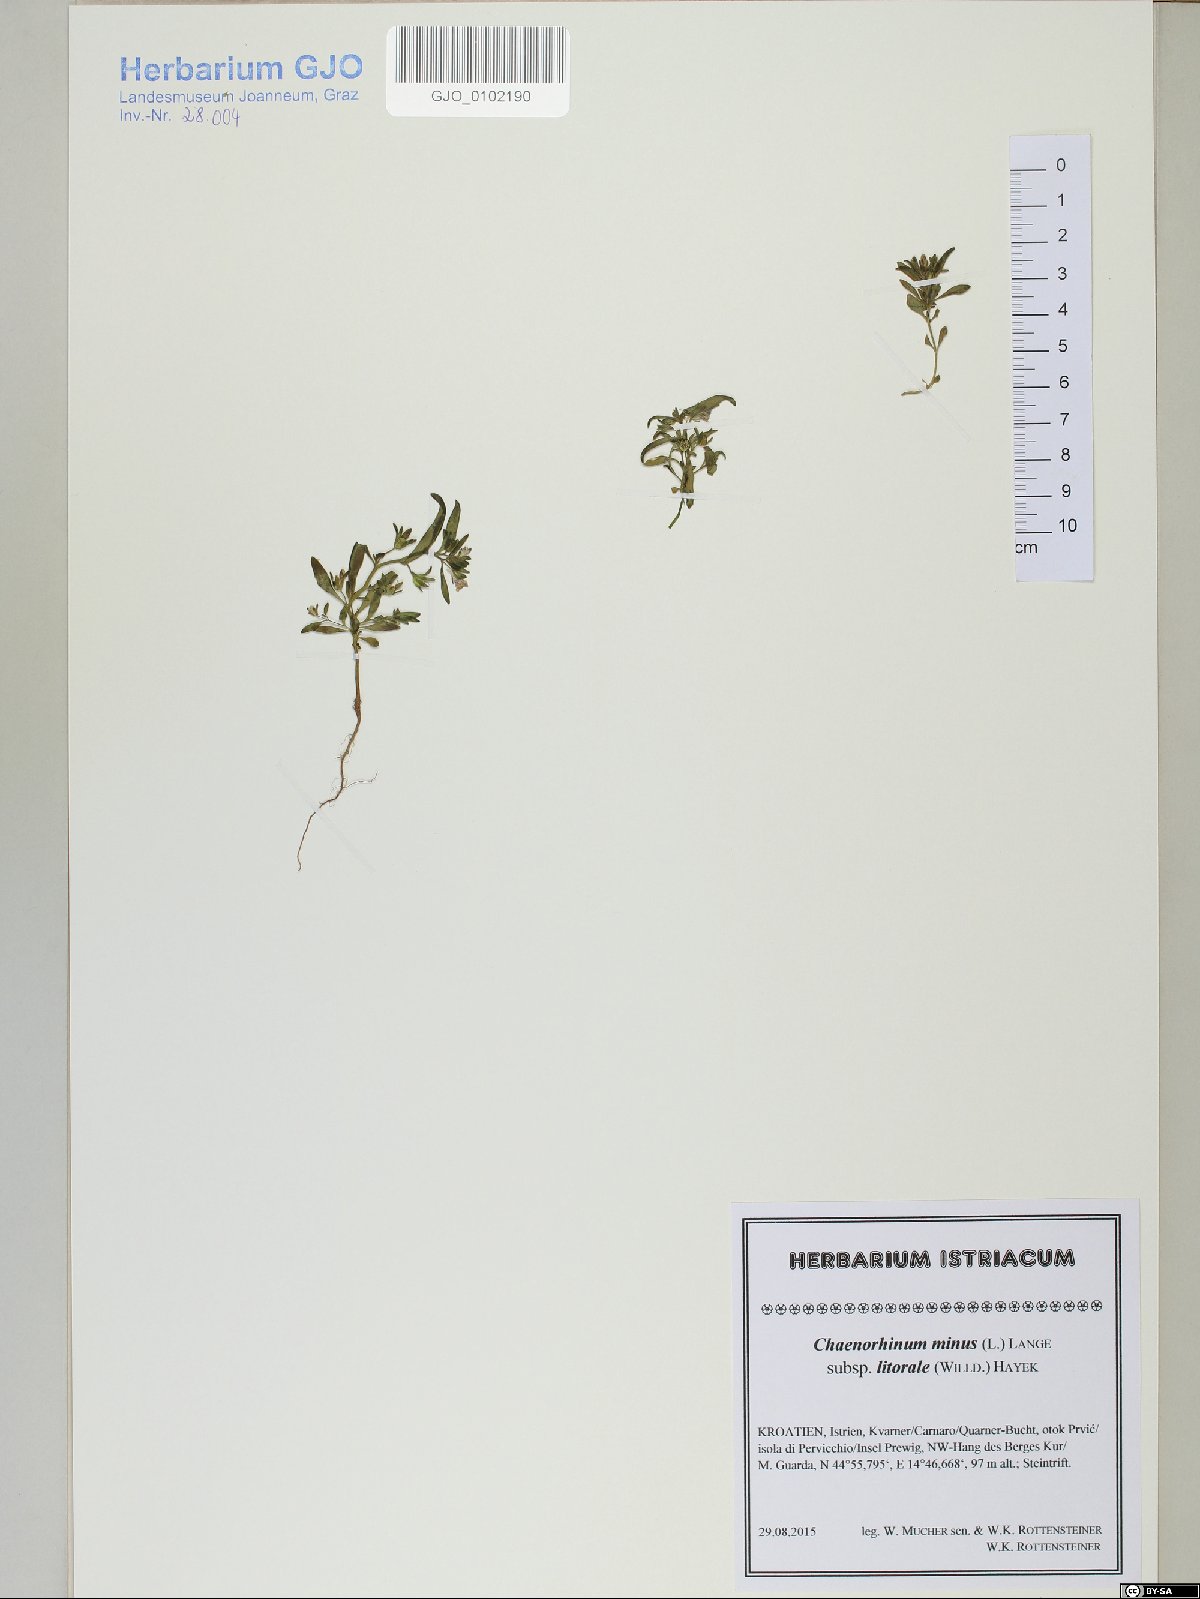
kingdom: Plantae
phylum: Tracheophyta
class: Magnoliopsida
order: Lamiales
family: Plantaginaceae
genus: Chaenorhinum
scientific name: Chaenorhinum litorale
